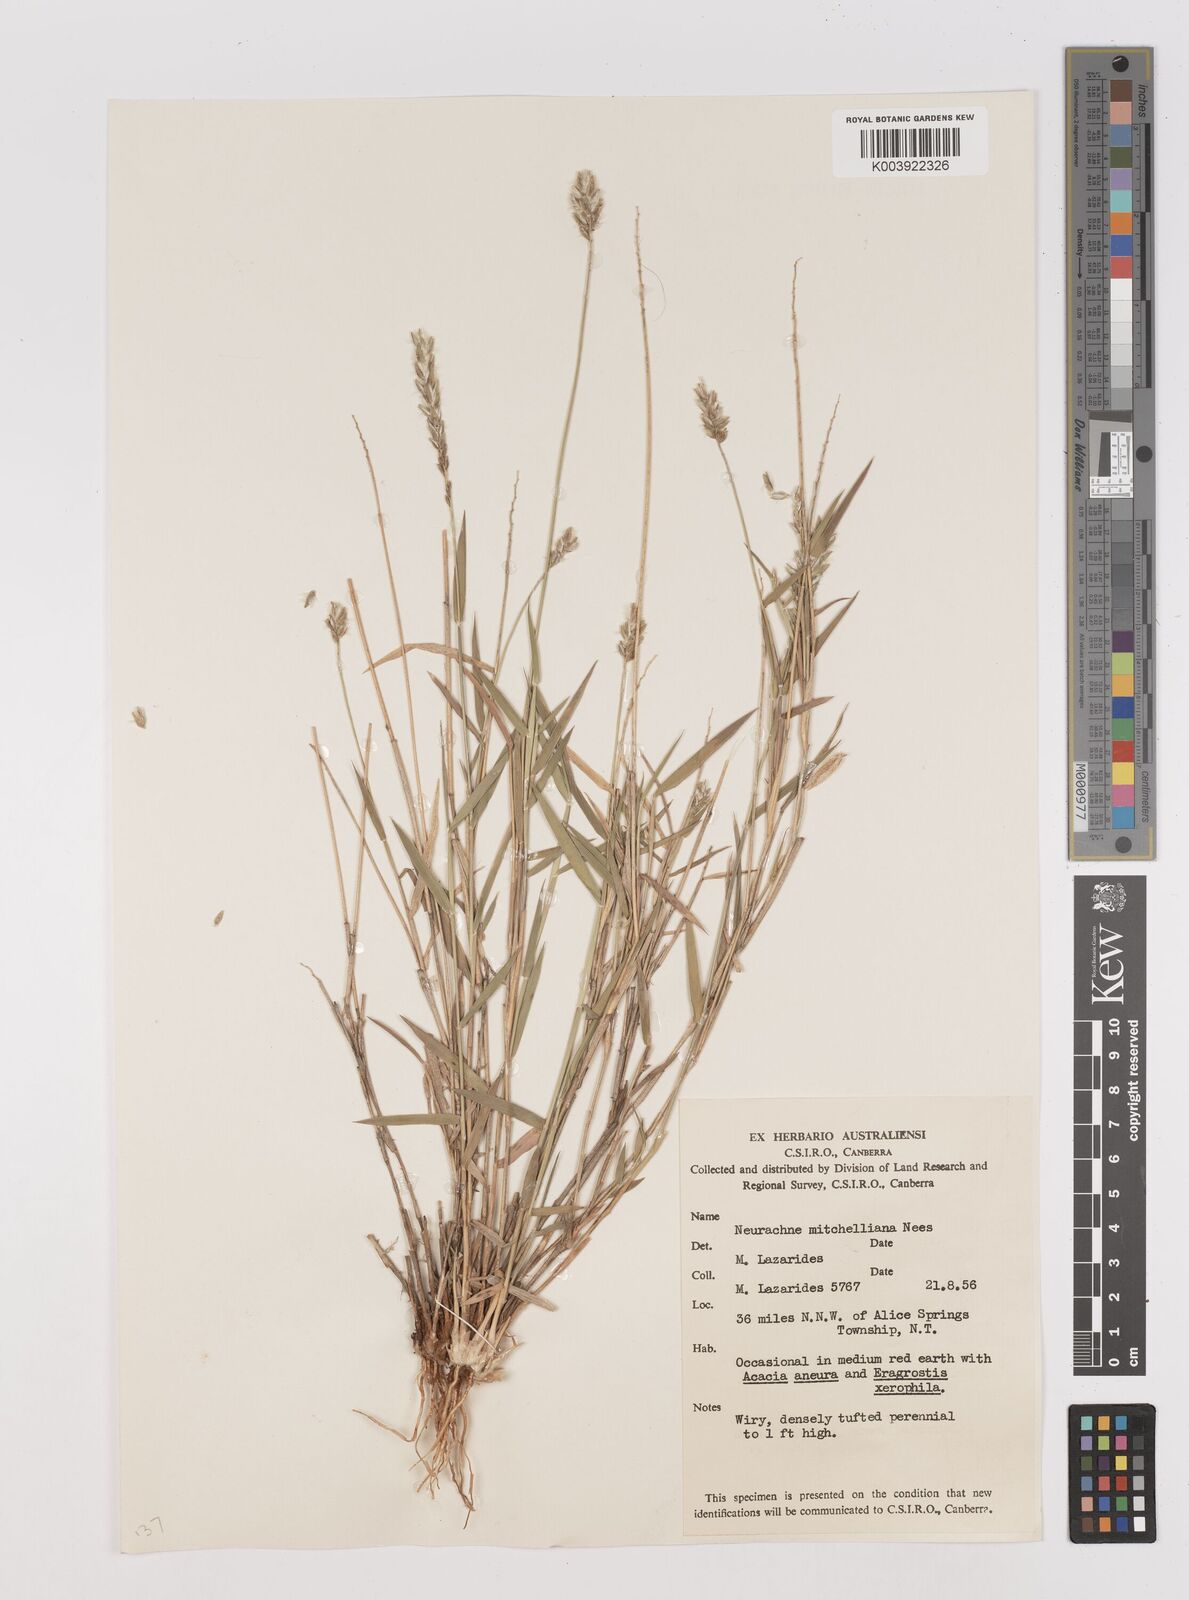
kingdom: Plantae
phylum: Tracheophyta
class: Liliopsida
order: Poales
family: Poaceae
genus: Thyridolepis
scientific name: Thyridolepis mitchelliana
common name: Rock tassel grass
